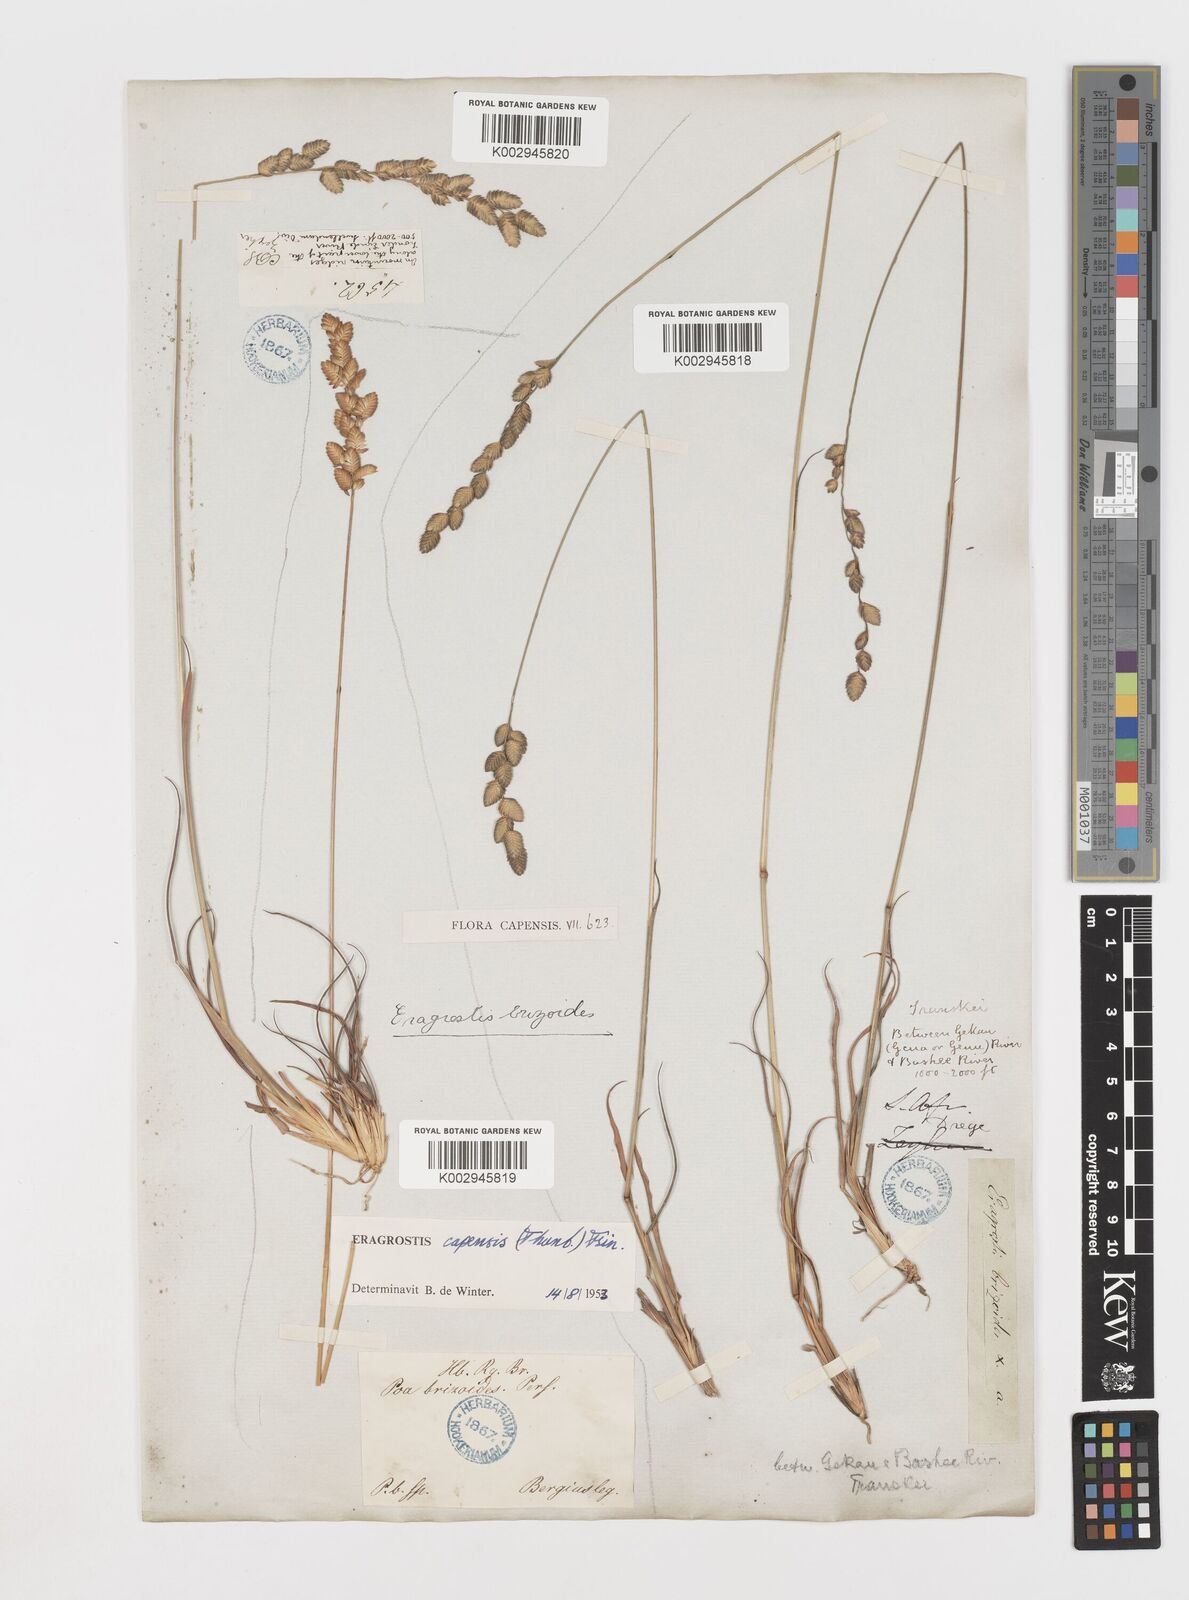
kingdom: Plantae
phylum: Tracheophyta
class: Liliopsida
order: Poales
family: Poaceae
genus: Eragrostis
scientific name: Eragrostis capensis
